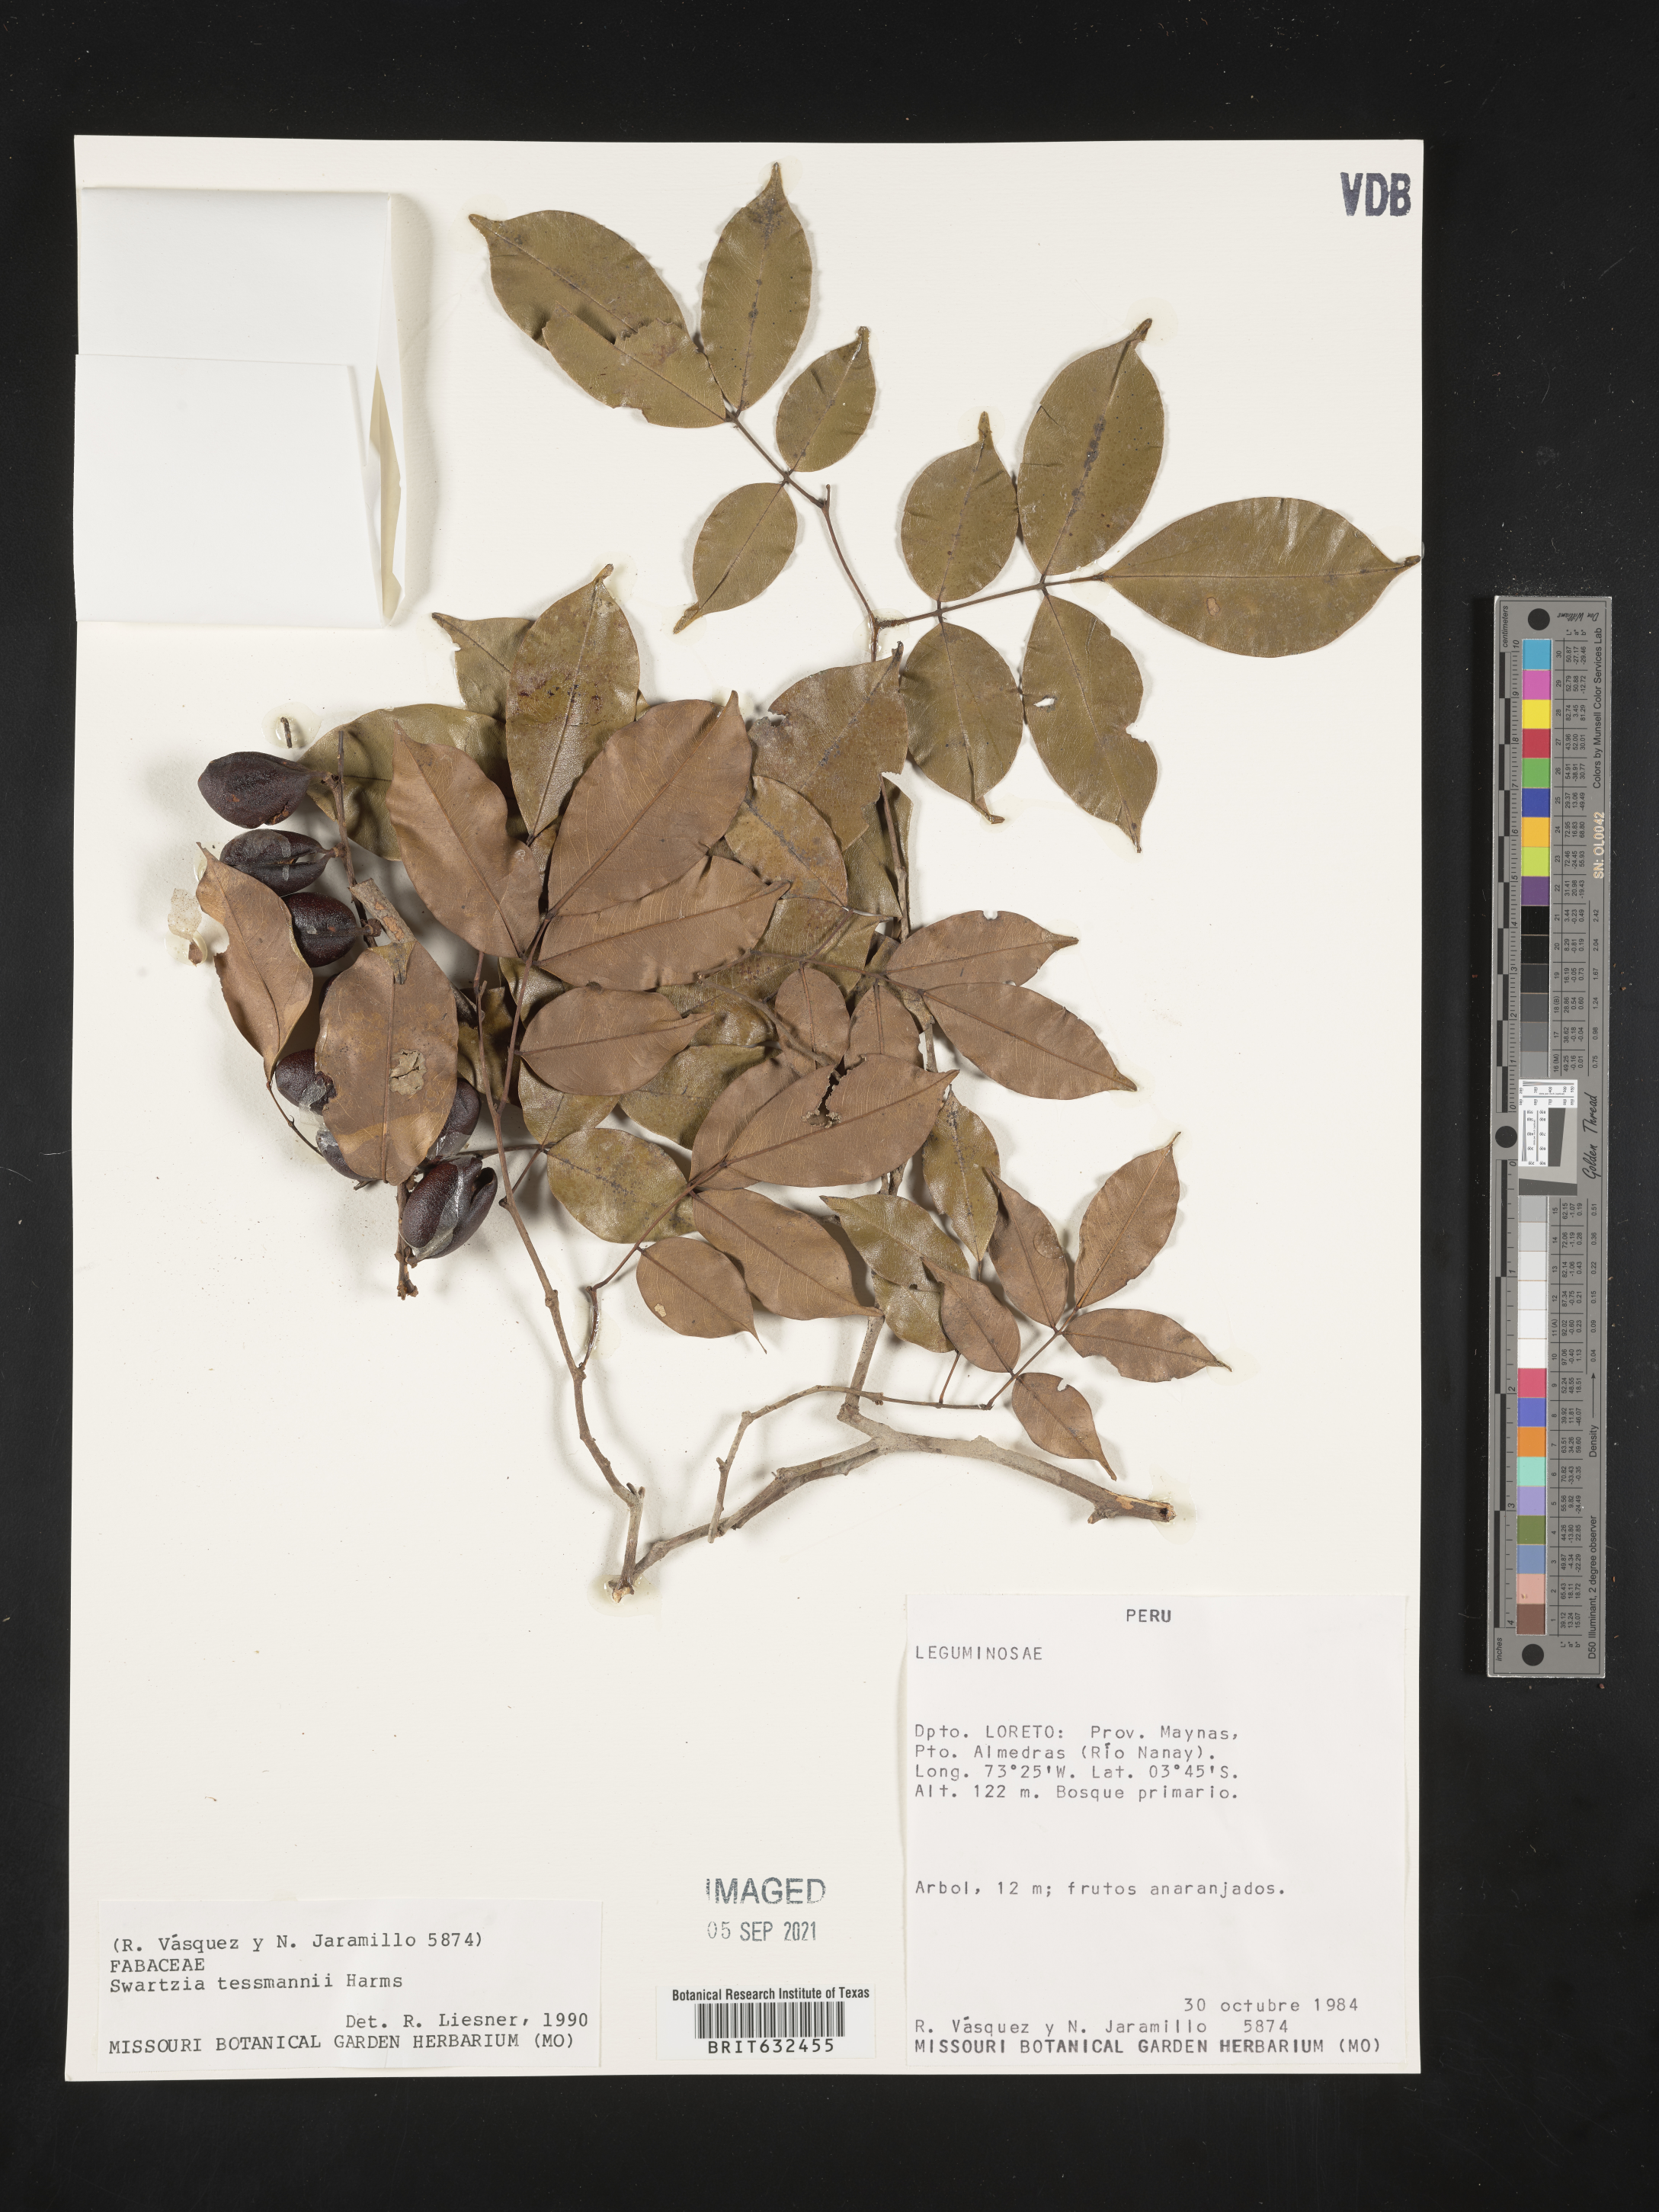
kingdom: Plantae
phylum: Tracheophyta
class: Magnoliopsida
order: Fabales
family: Fabaceae
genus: Swartzia
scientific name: Swartzia
